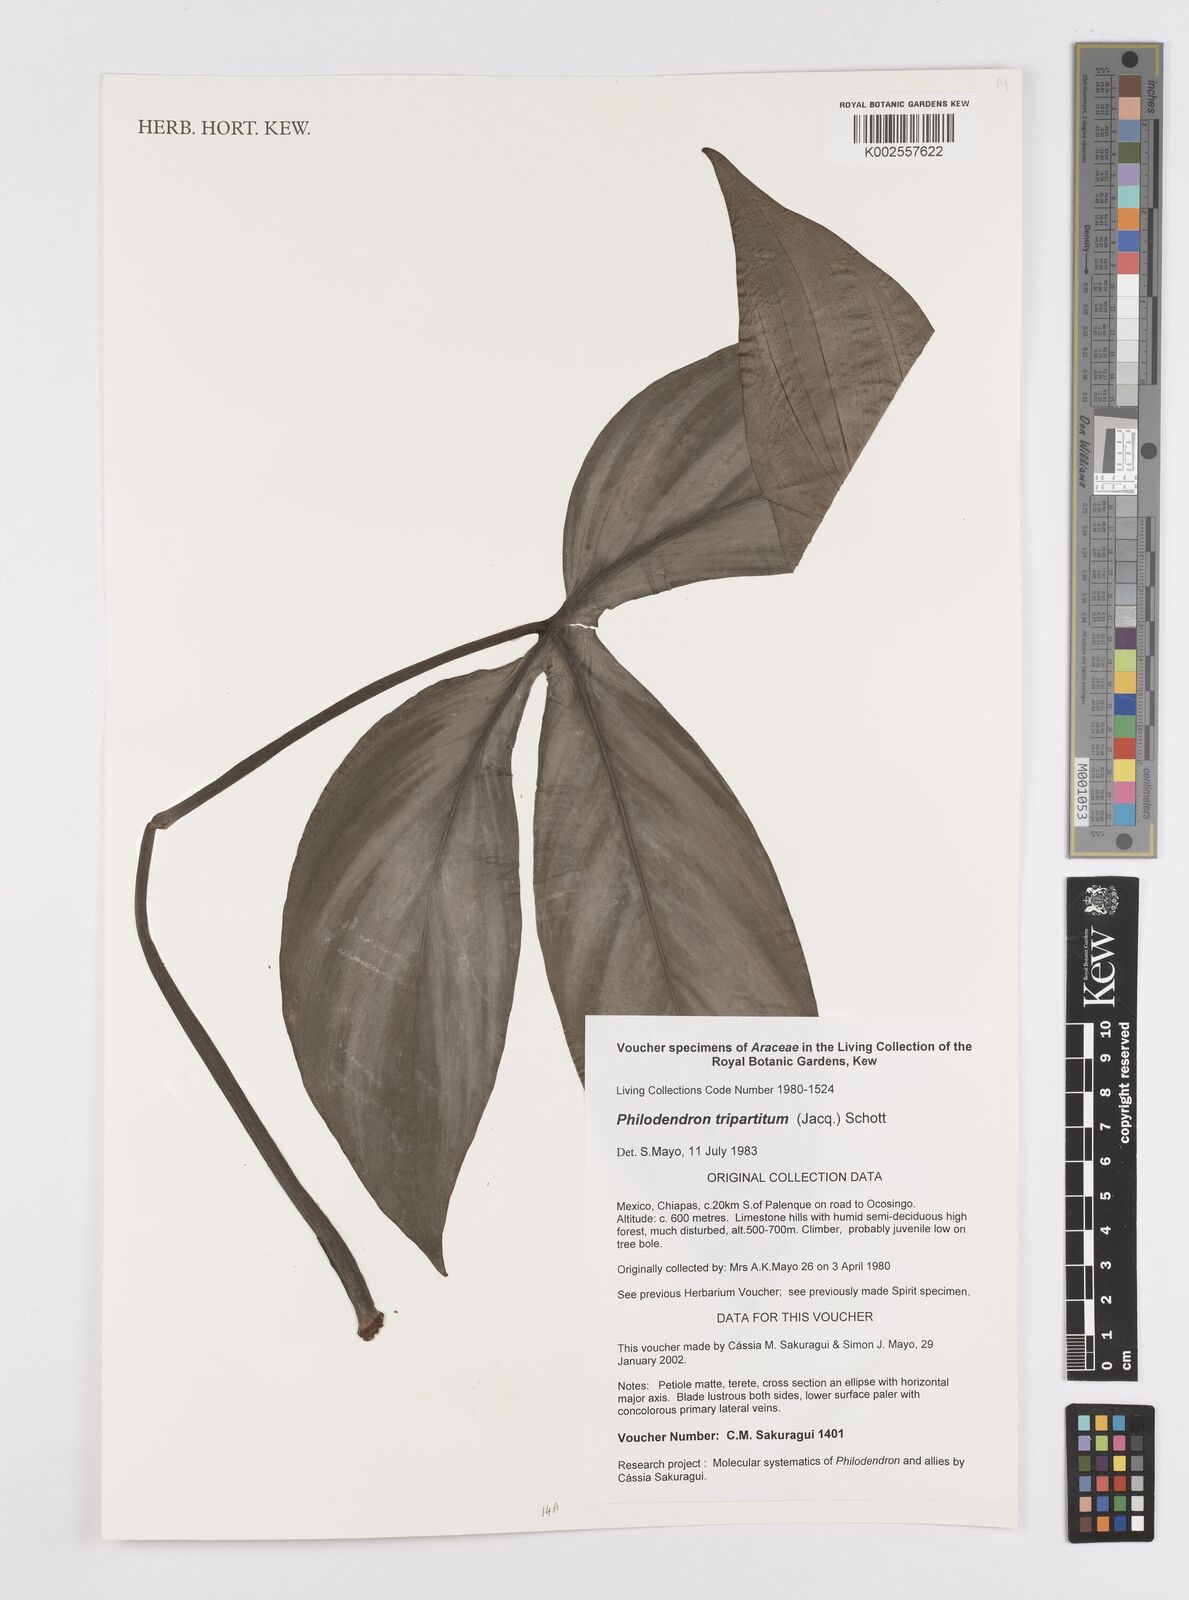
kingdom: Plantae
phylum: Tracheophyta
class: Liliopsida
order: Alismatales
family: Araceae
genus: Philodendron
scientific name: Philodendron tripartitum
